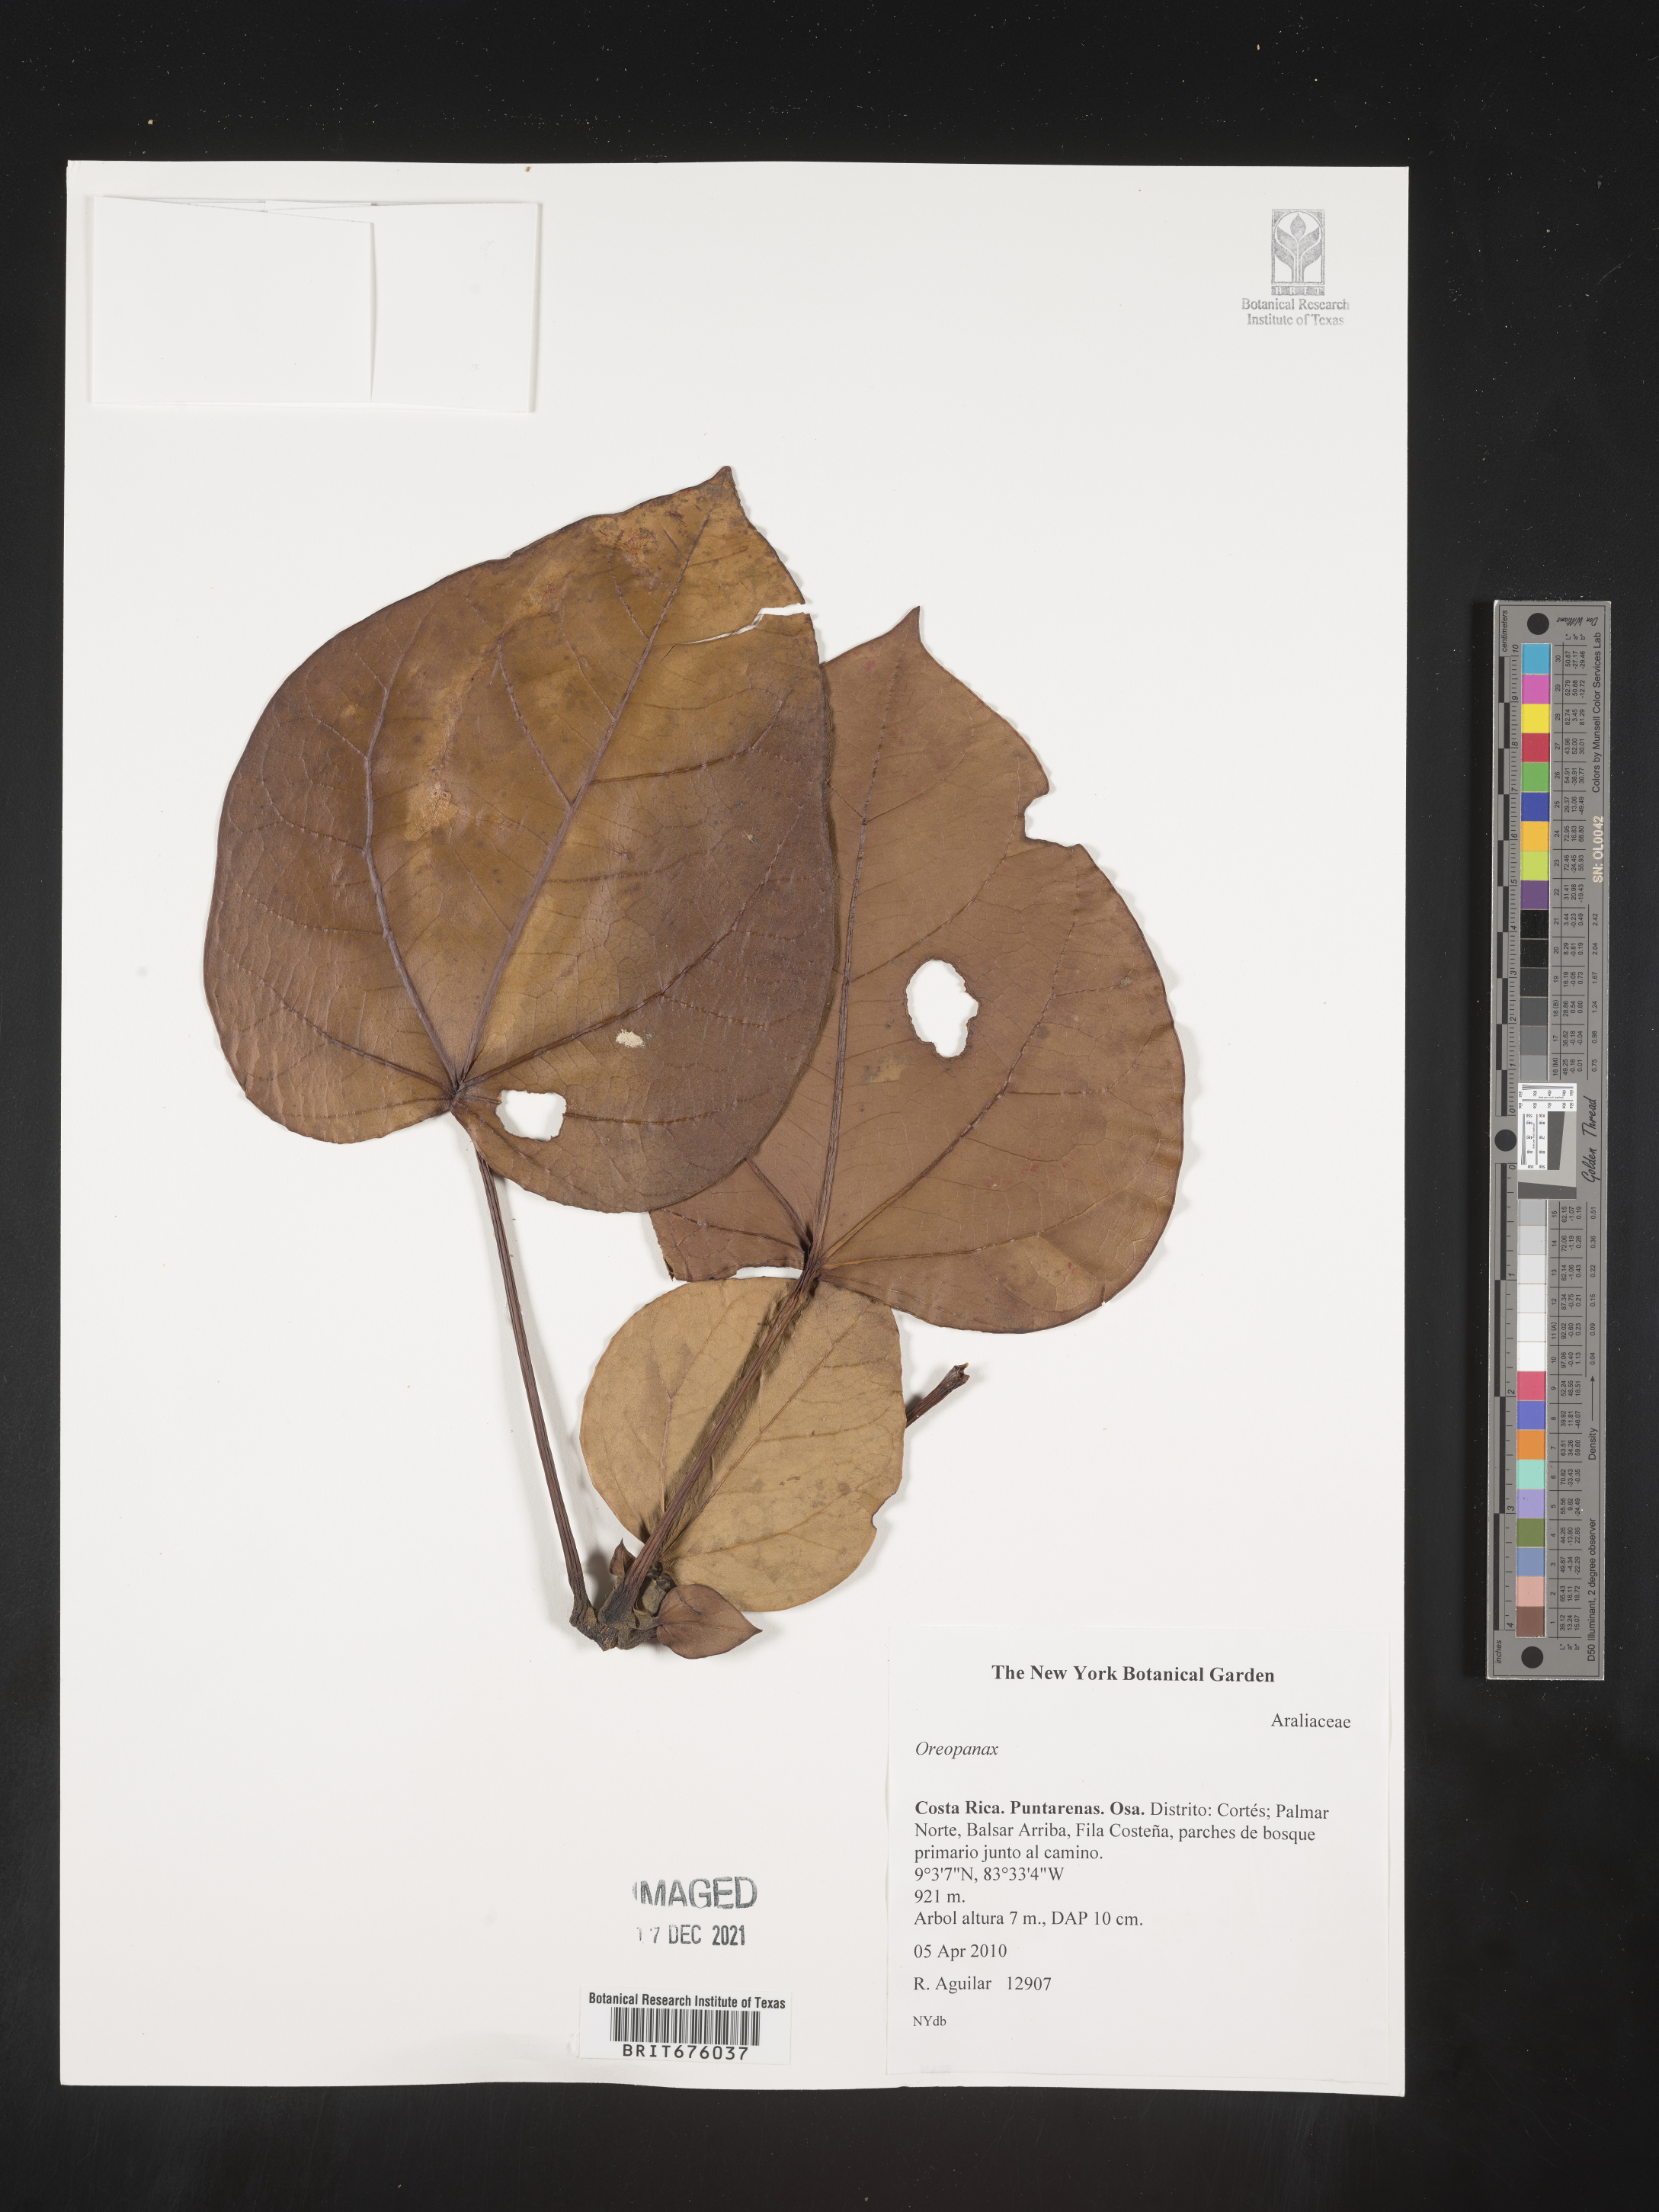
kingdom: Plantae
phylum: Tracheophyta
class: Magnoliopsida
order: Apiales
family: Araliaceae
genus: Oreopanax
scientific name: Oreopanax
